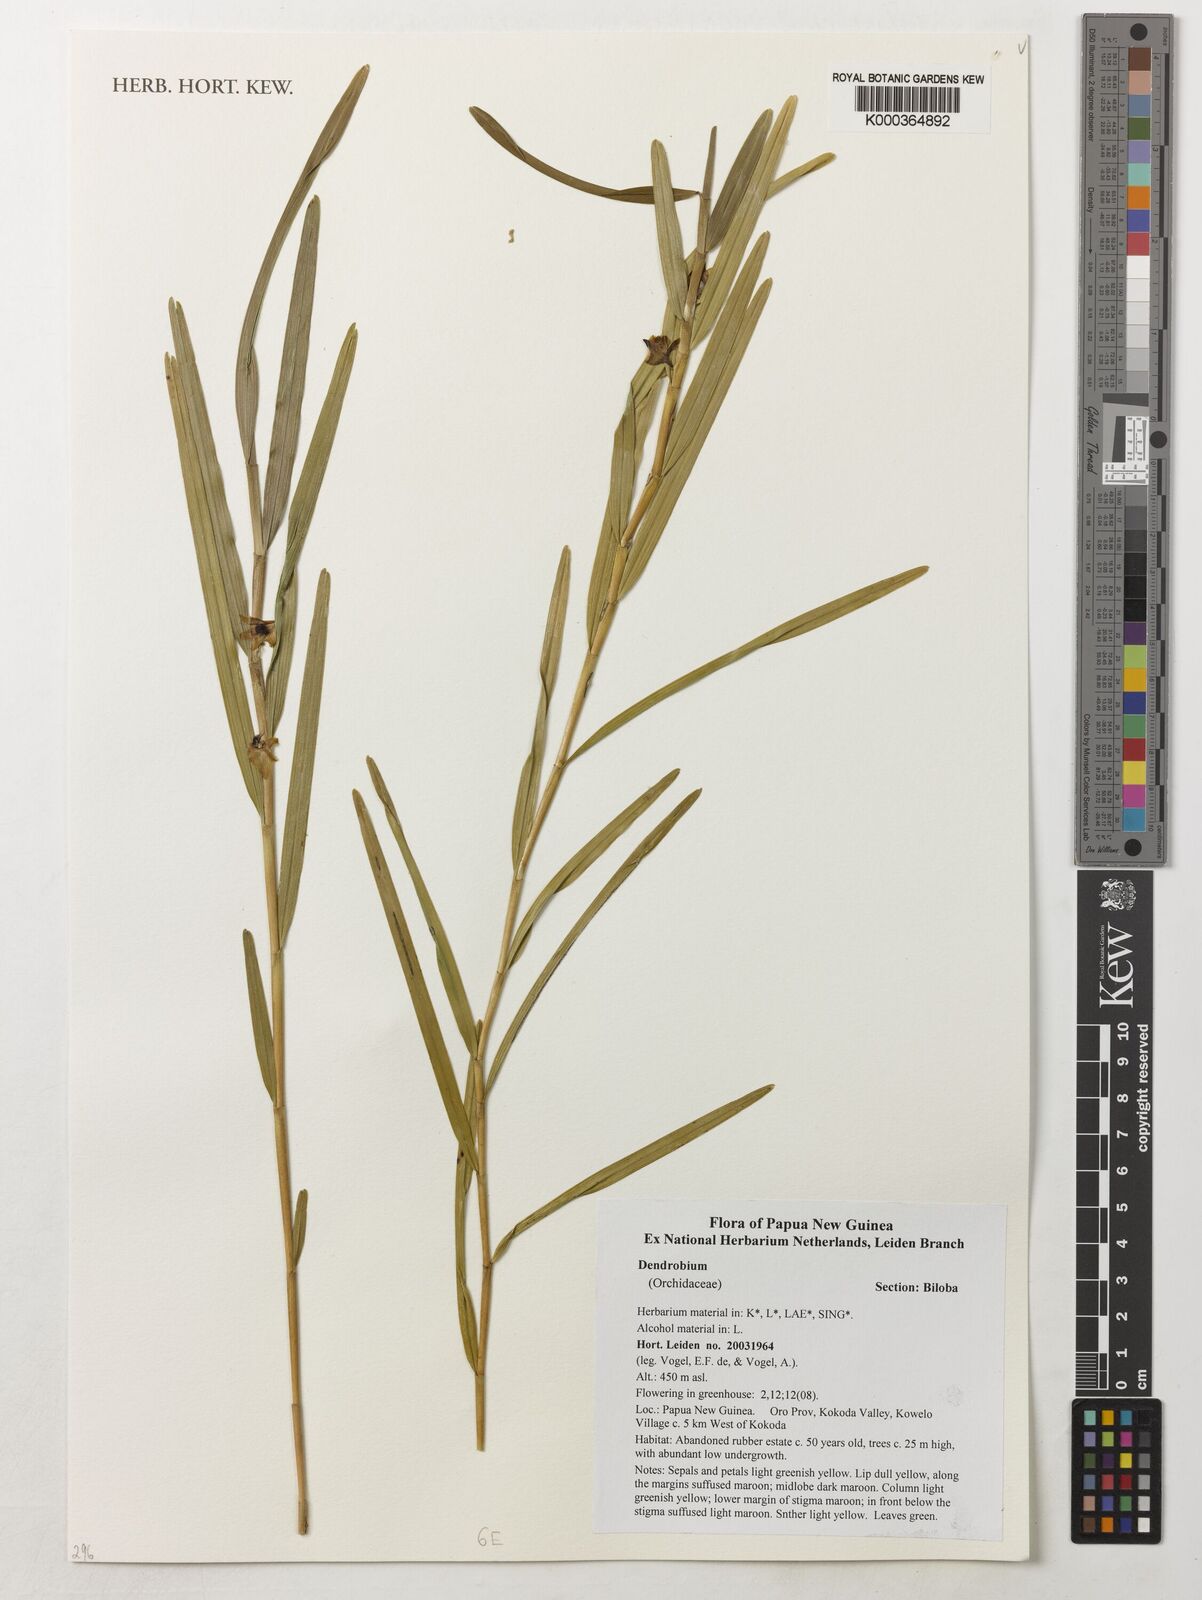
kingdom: Plantae
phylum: Tracheophyta
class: Liliopsida
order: Asparagales
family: Orchidaceae
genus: Dendrobium
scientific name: Dendrobium
